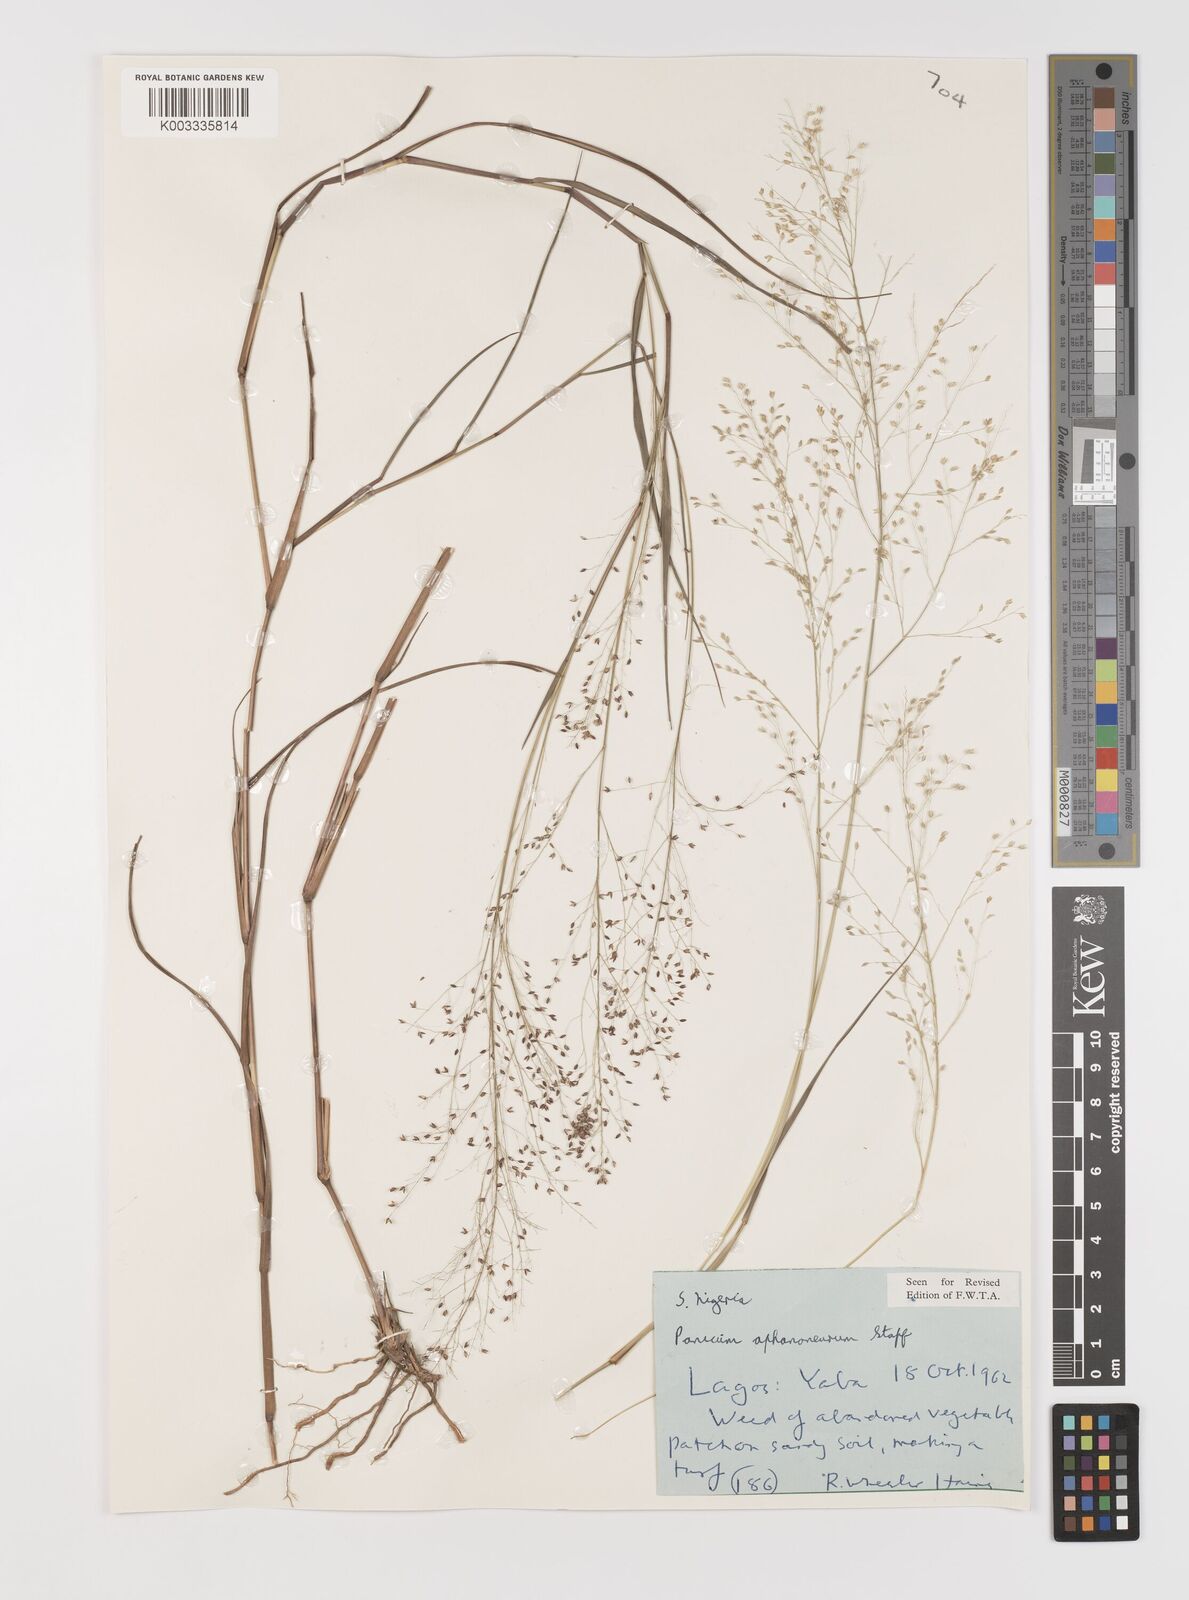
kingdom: Plantae
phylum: Tracheophyta
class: Liliopsida
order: Poales
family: Poaceae
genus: Panicum
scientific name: Panicum fluviicola
